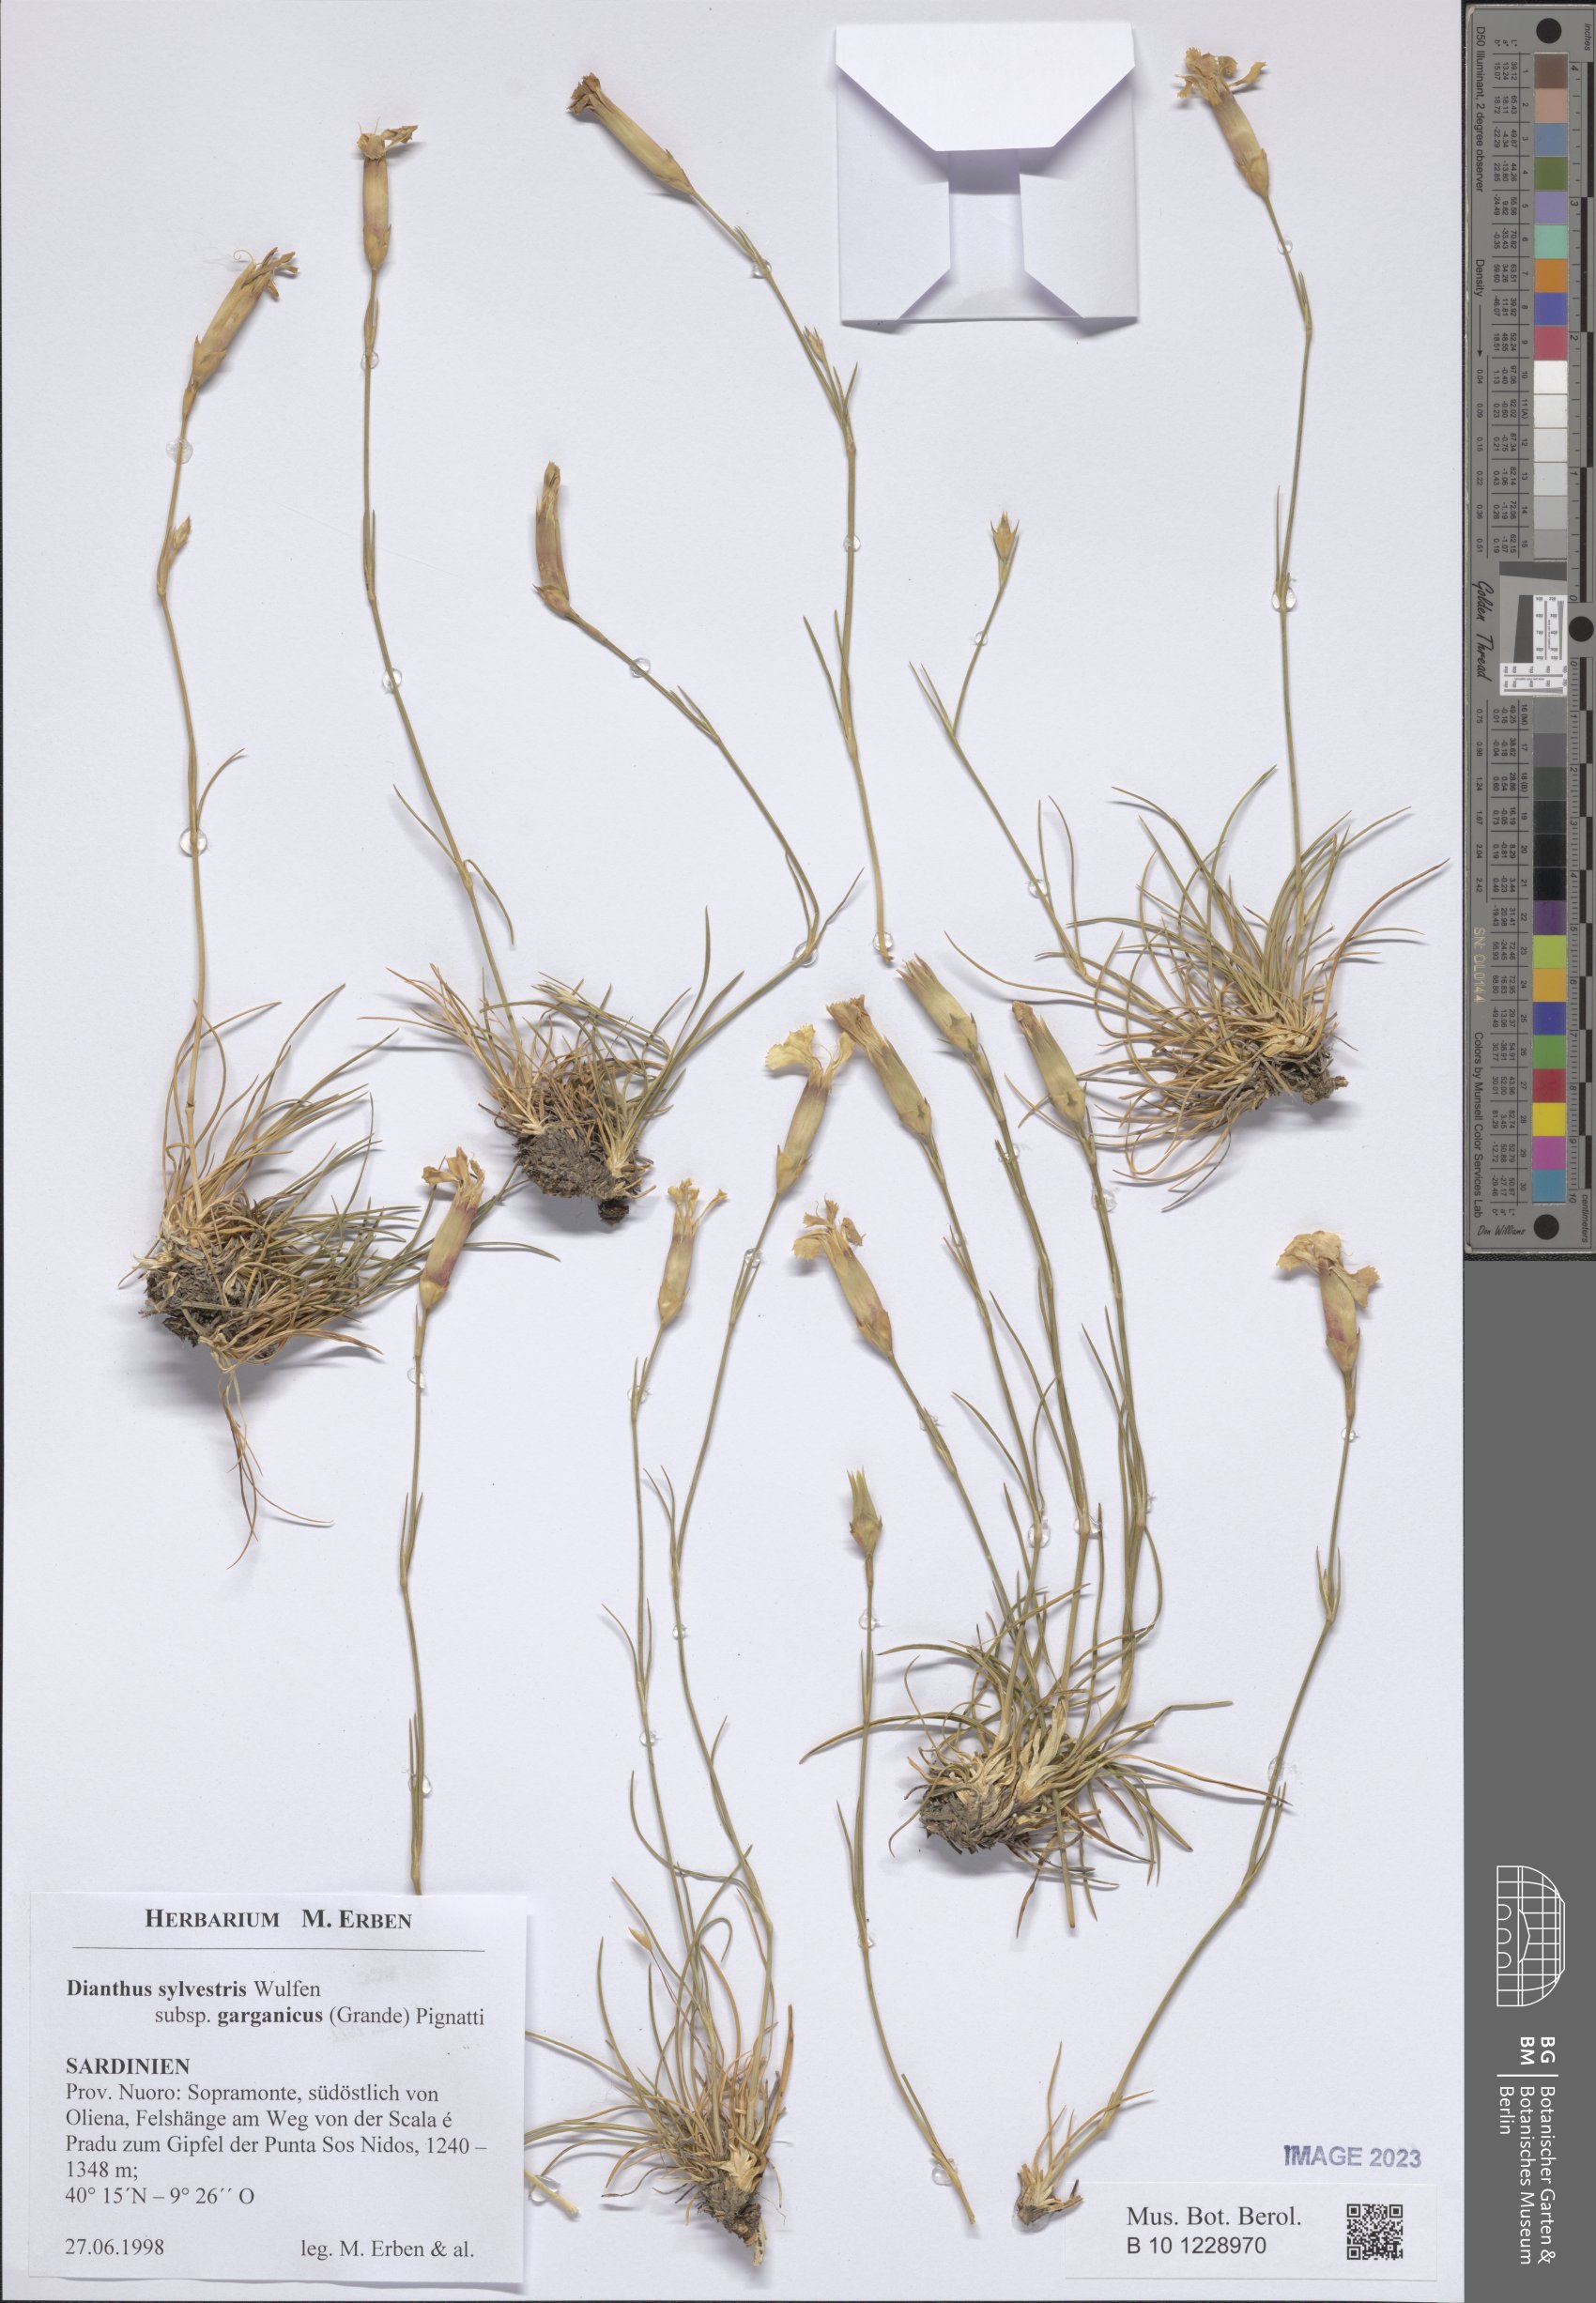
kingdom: Plantae
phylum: Tracheophyta
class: Magnoliopsida
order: Caryophyllales
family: Caryophyllaceae
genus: Dianthus
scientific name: Dianthus tarentinus
